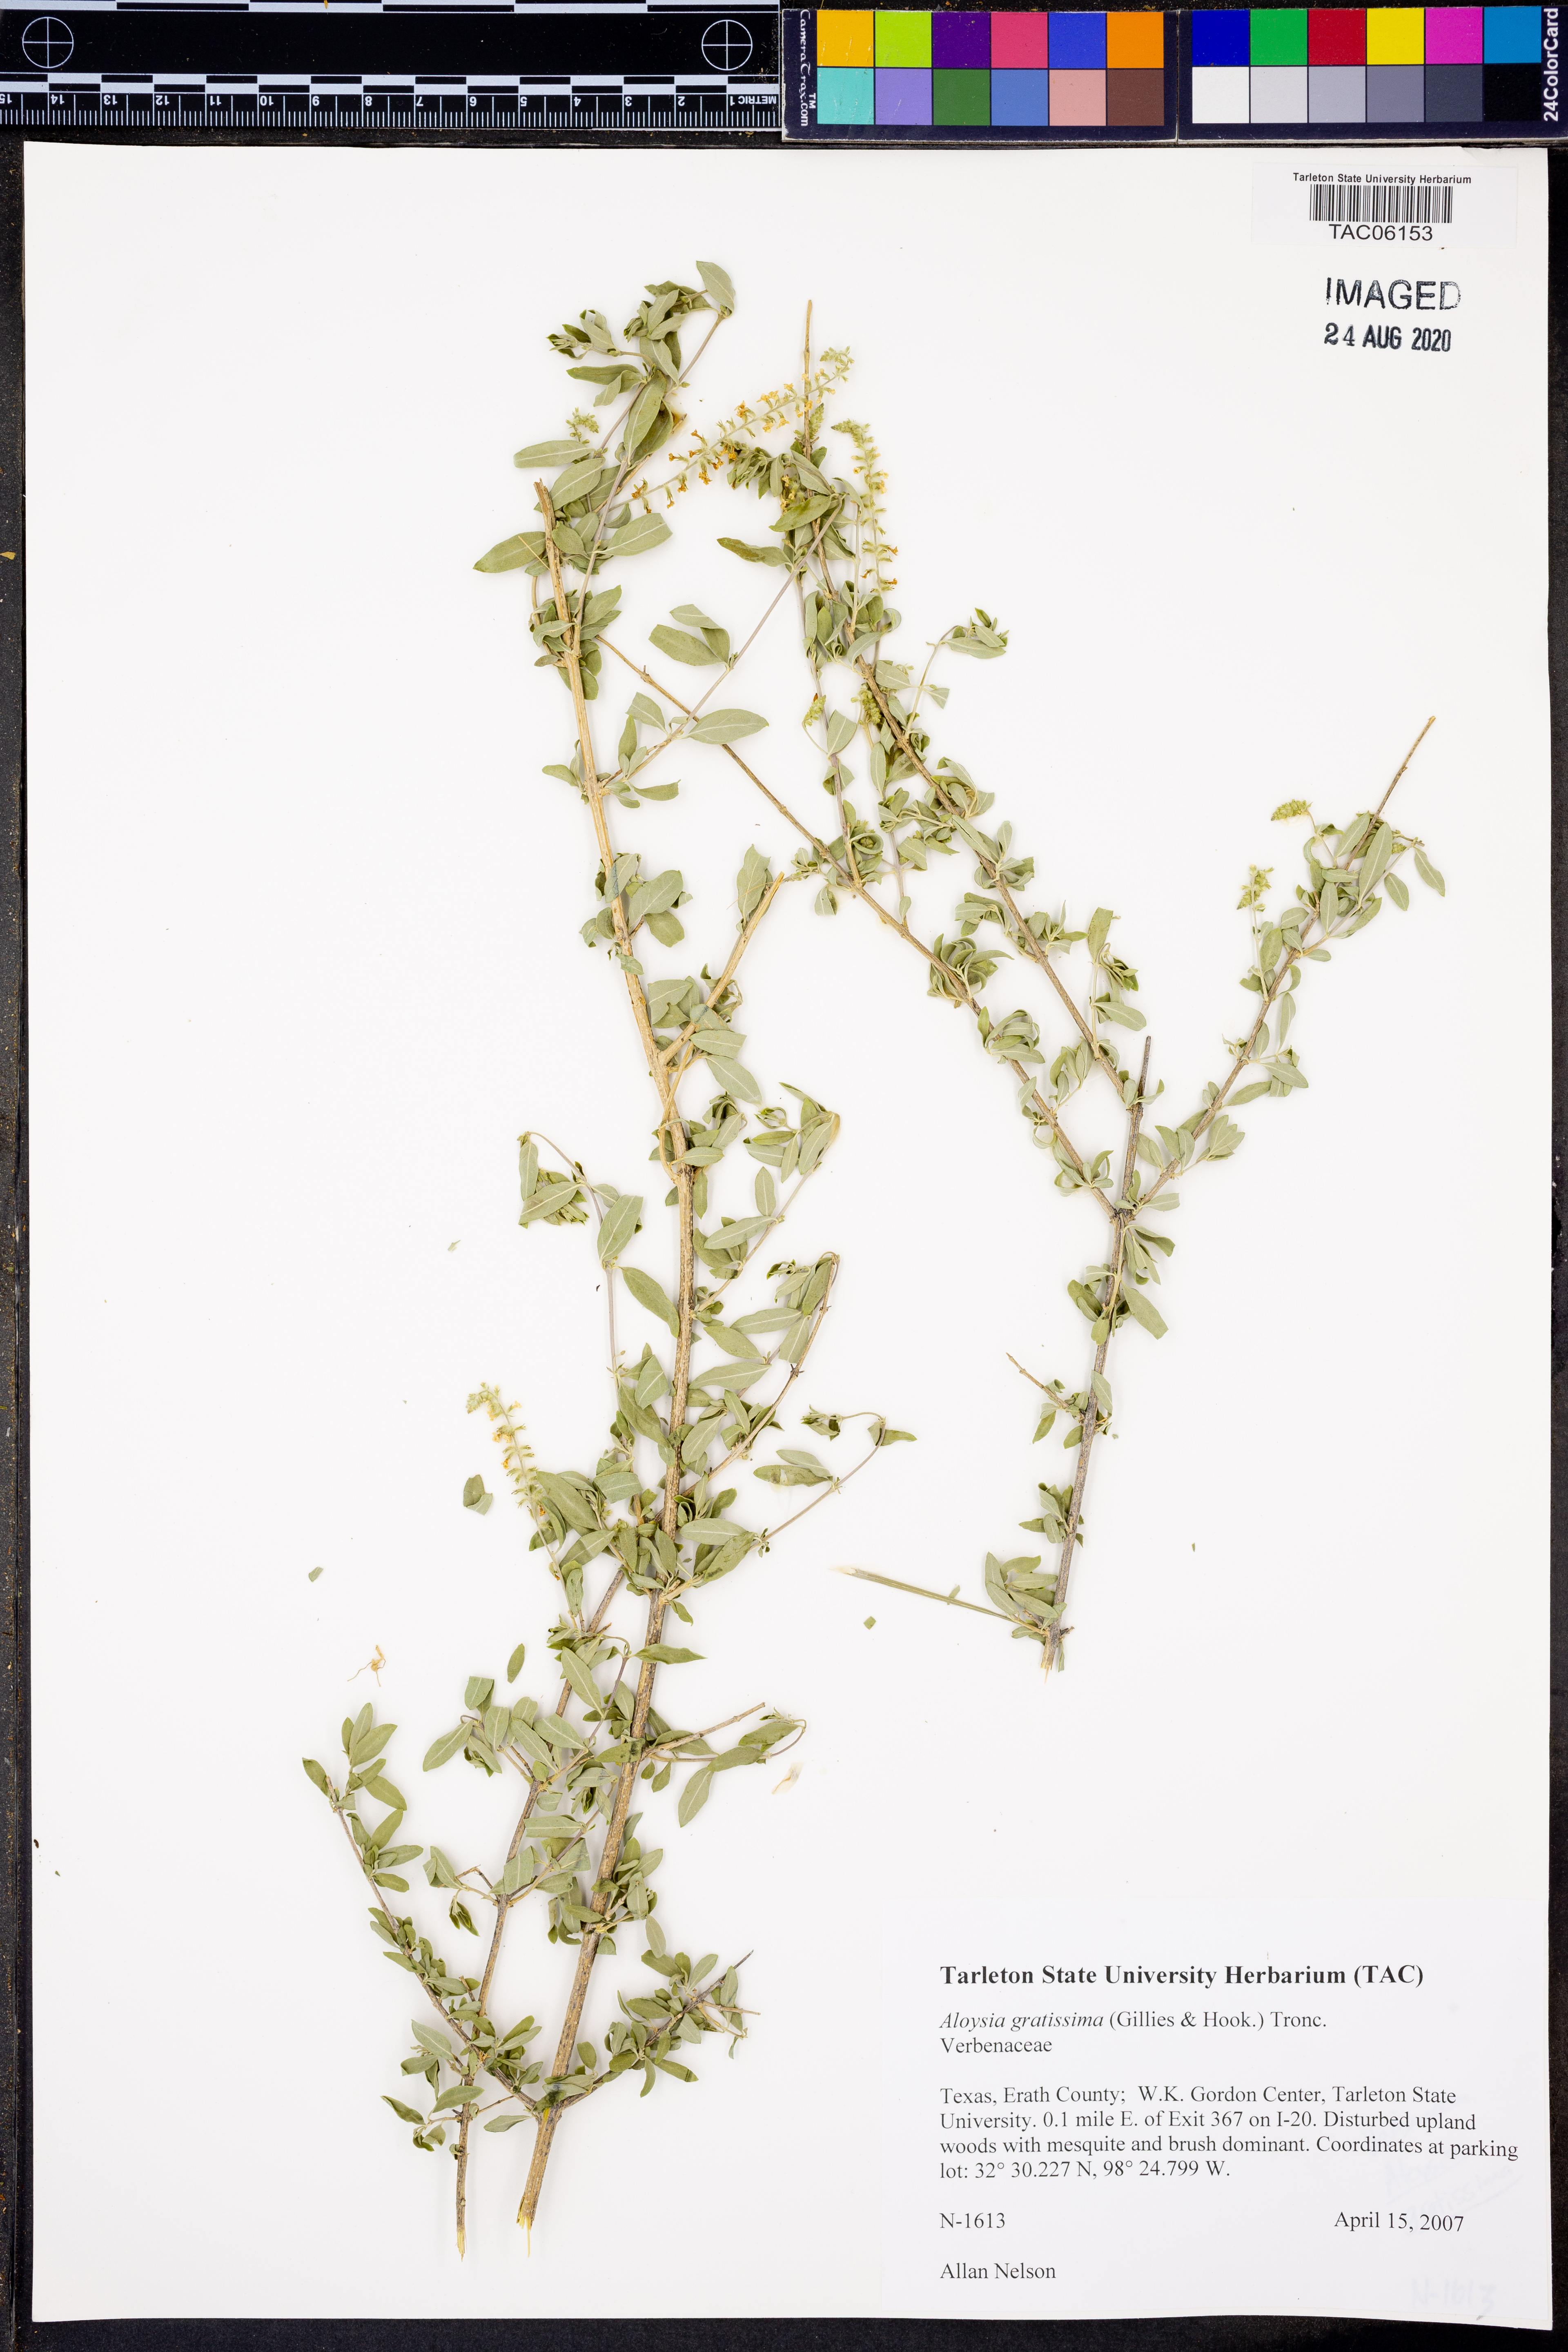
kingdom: Plantae
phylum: Tracheophyta
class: Magnoliopsida
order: Lamiales
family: Verbenaceae
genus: Aloysia
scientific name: Aloysia gratissima
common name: Common bee-brush
